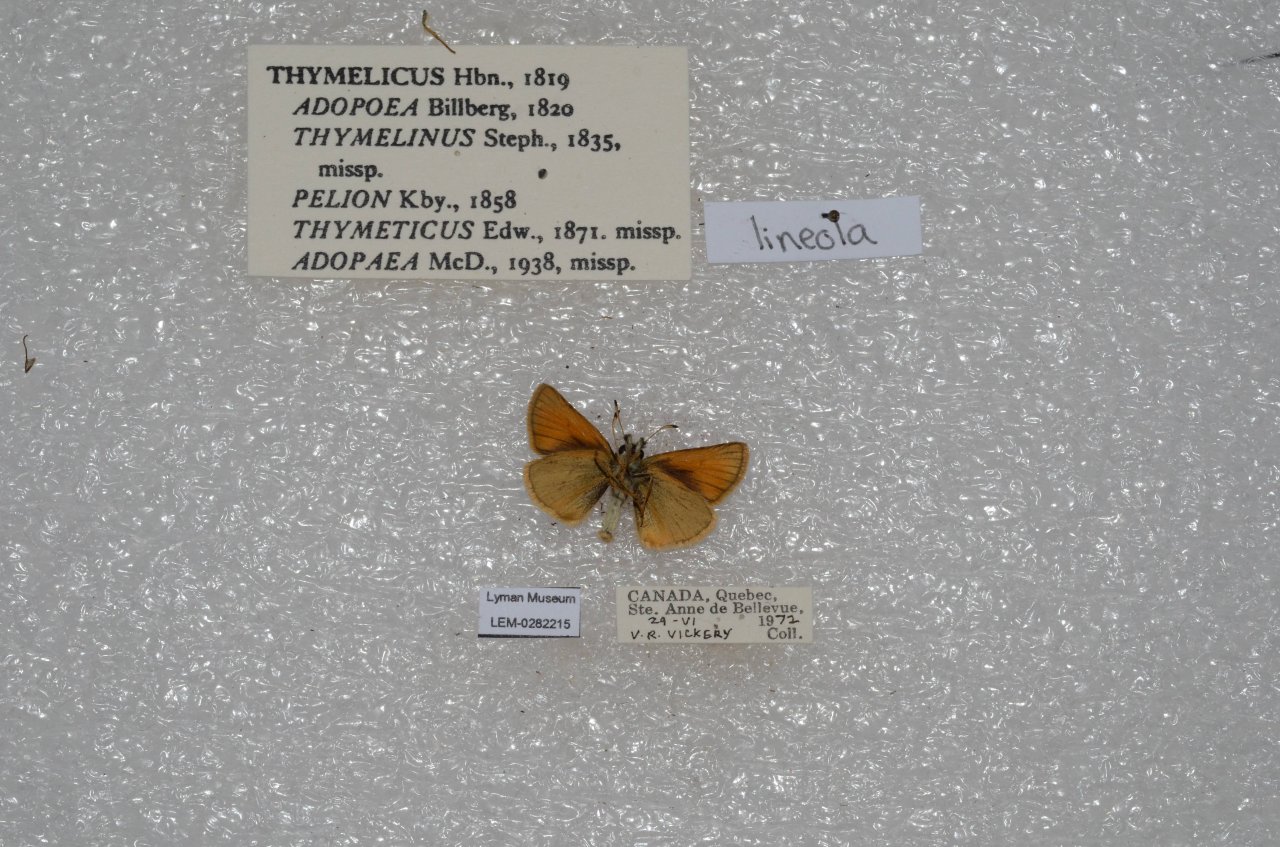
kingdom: Animalia
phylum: Arthropoda
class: Insecta
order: Lepidoptera
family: Hesperiidae
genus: Thymelicus
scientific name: Thymelicus lineola
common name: European Skipper
